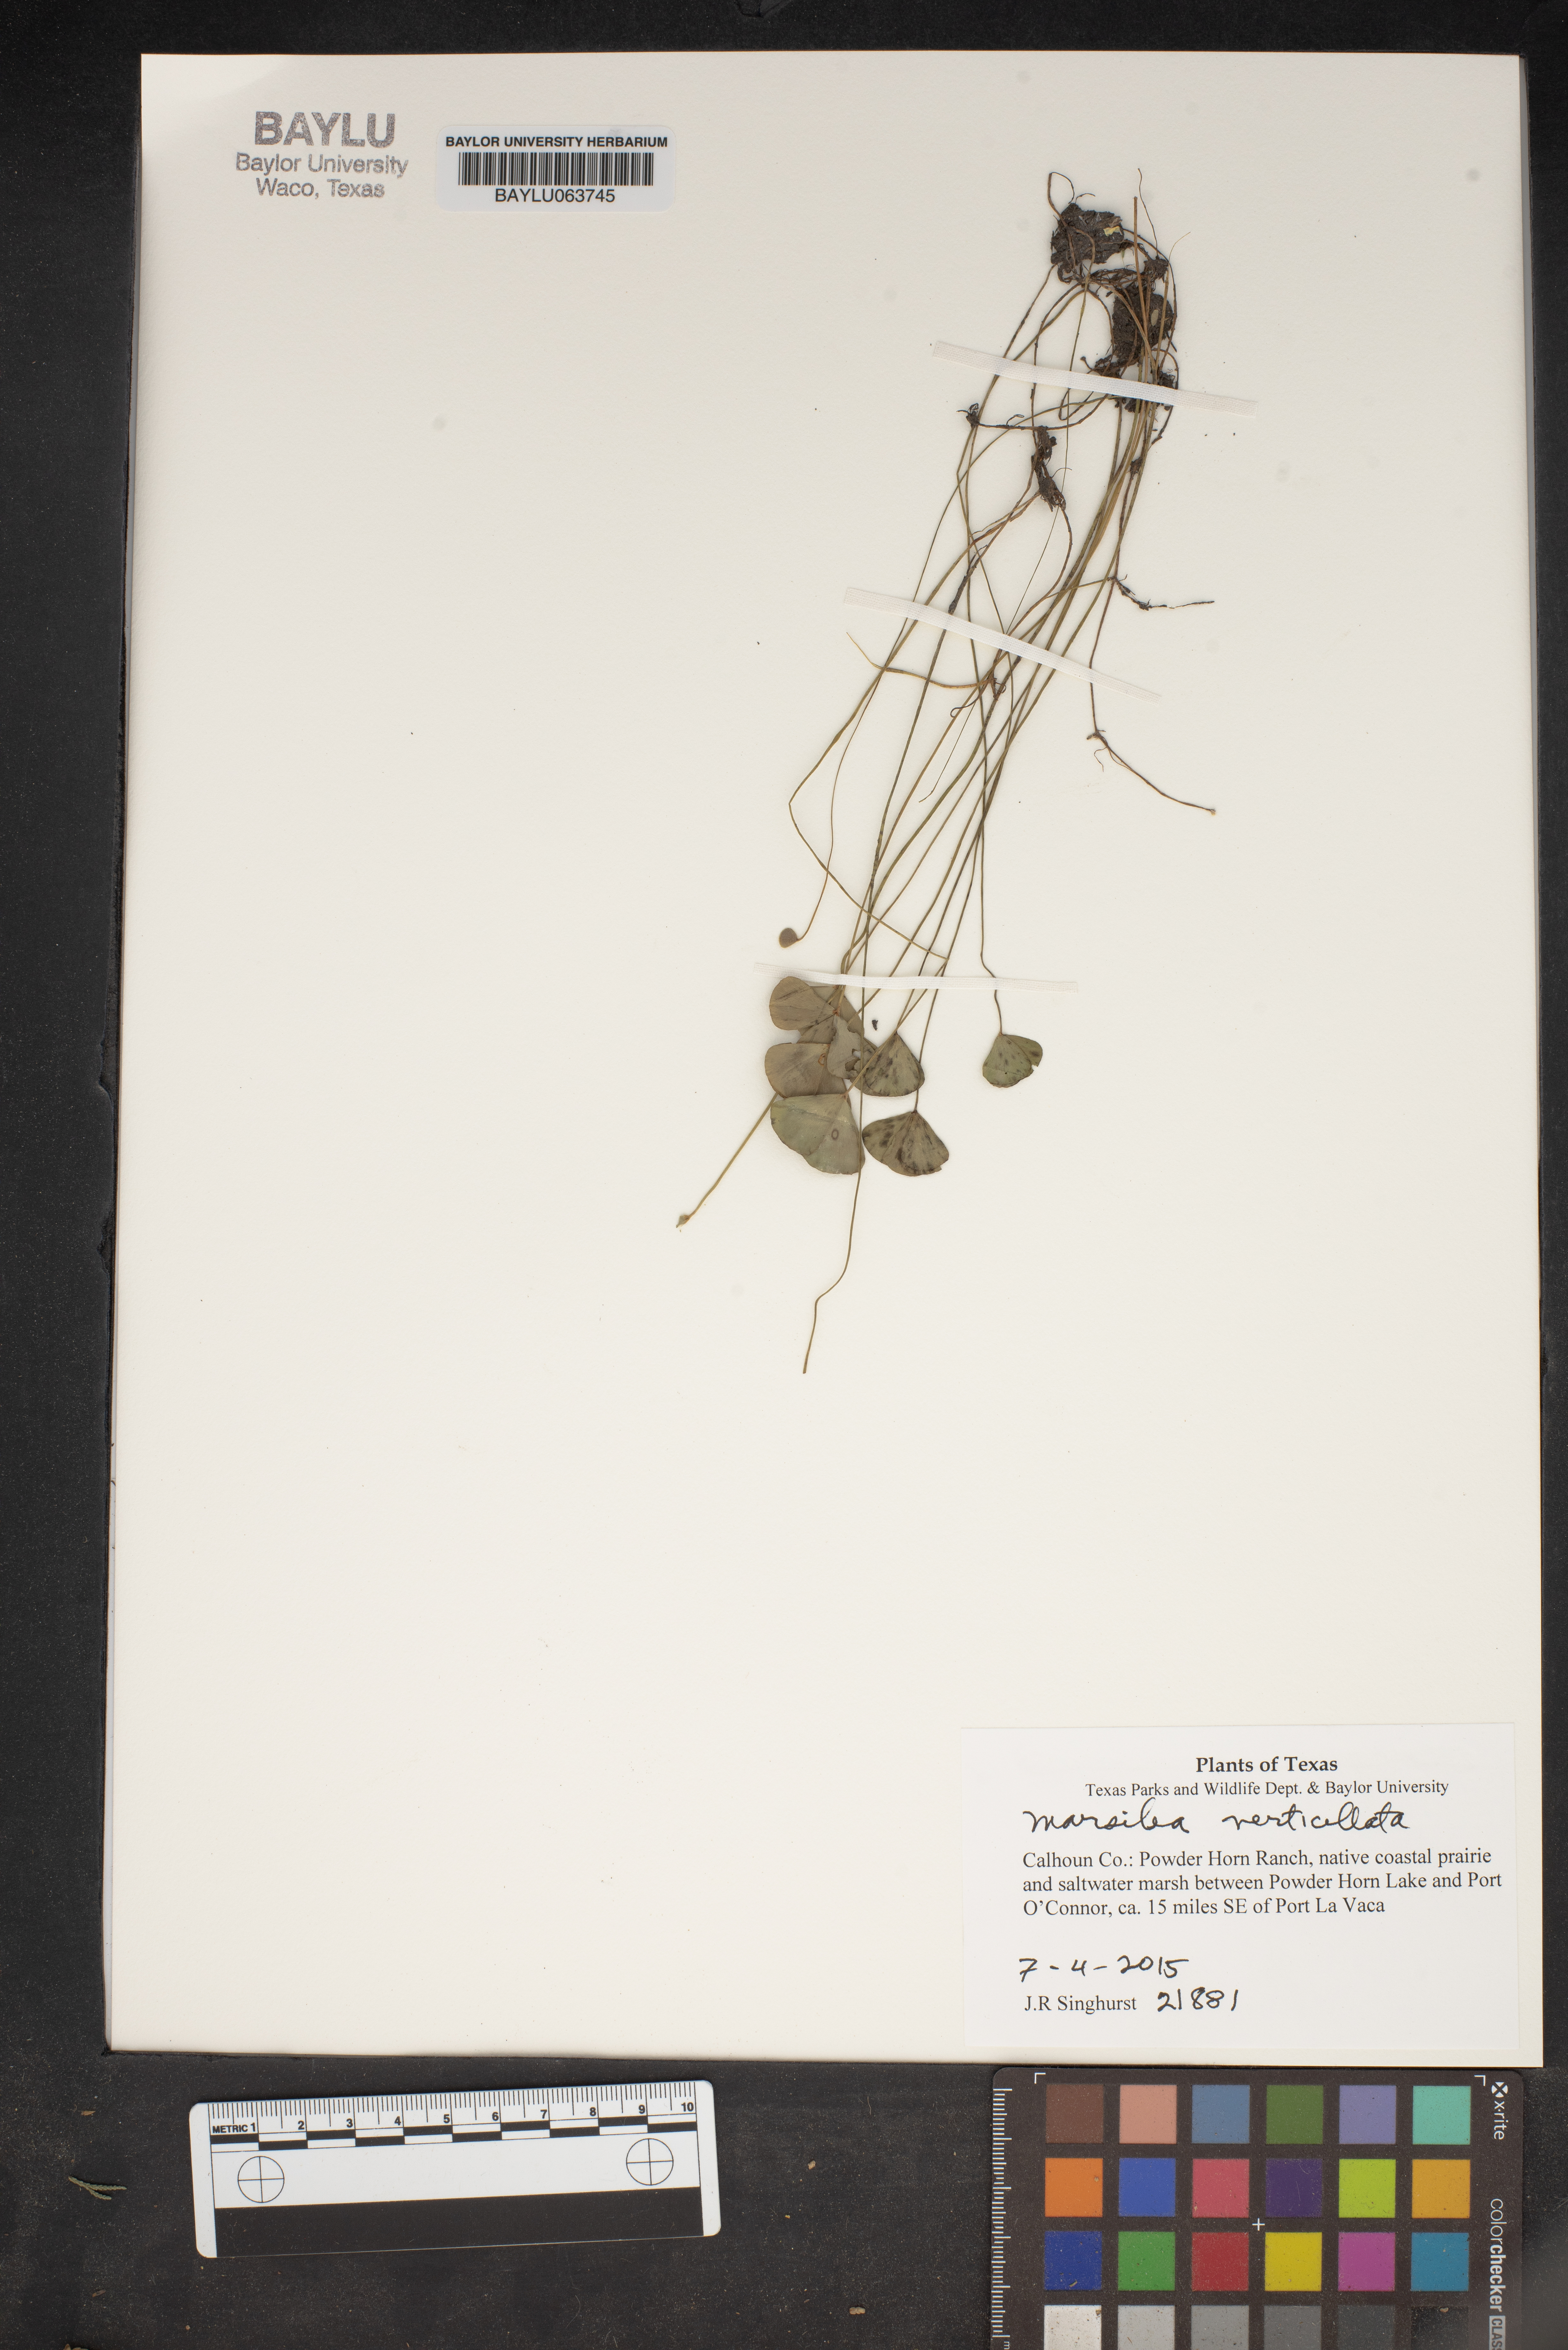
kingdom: Plantae
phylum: Tracheophyta
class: Polypodiopsida
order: Salviniales
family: Marsileaceae
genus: Marsilea
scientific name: Marsilea
